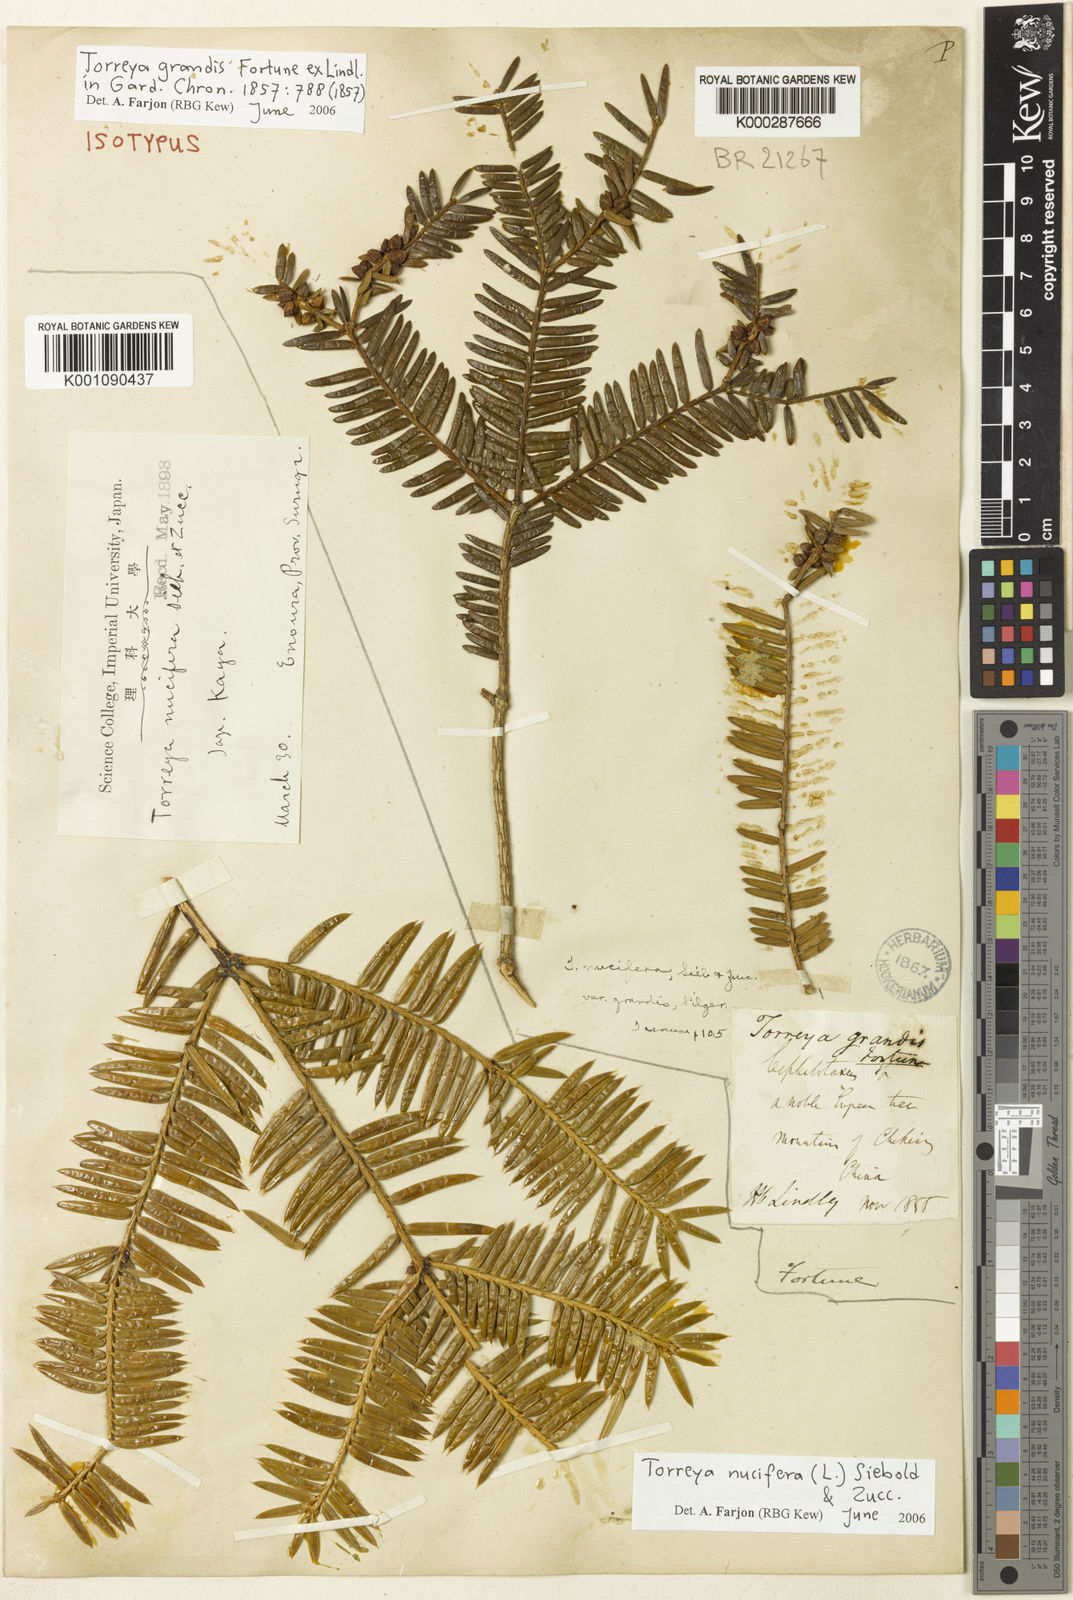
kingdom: Plantae
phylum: Tracheophyta
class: Pinopsida
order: Pinales
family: Taxaceae
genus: Torreya
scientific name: Torreya grandis
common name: Chinese nutmeg tree
